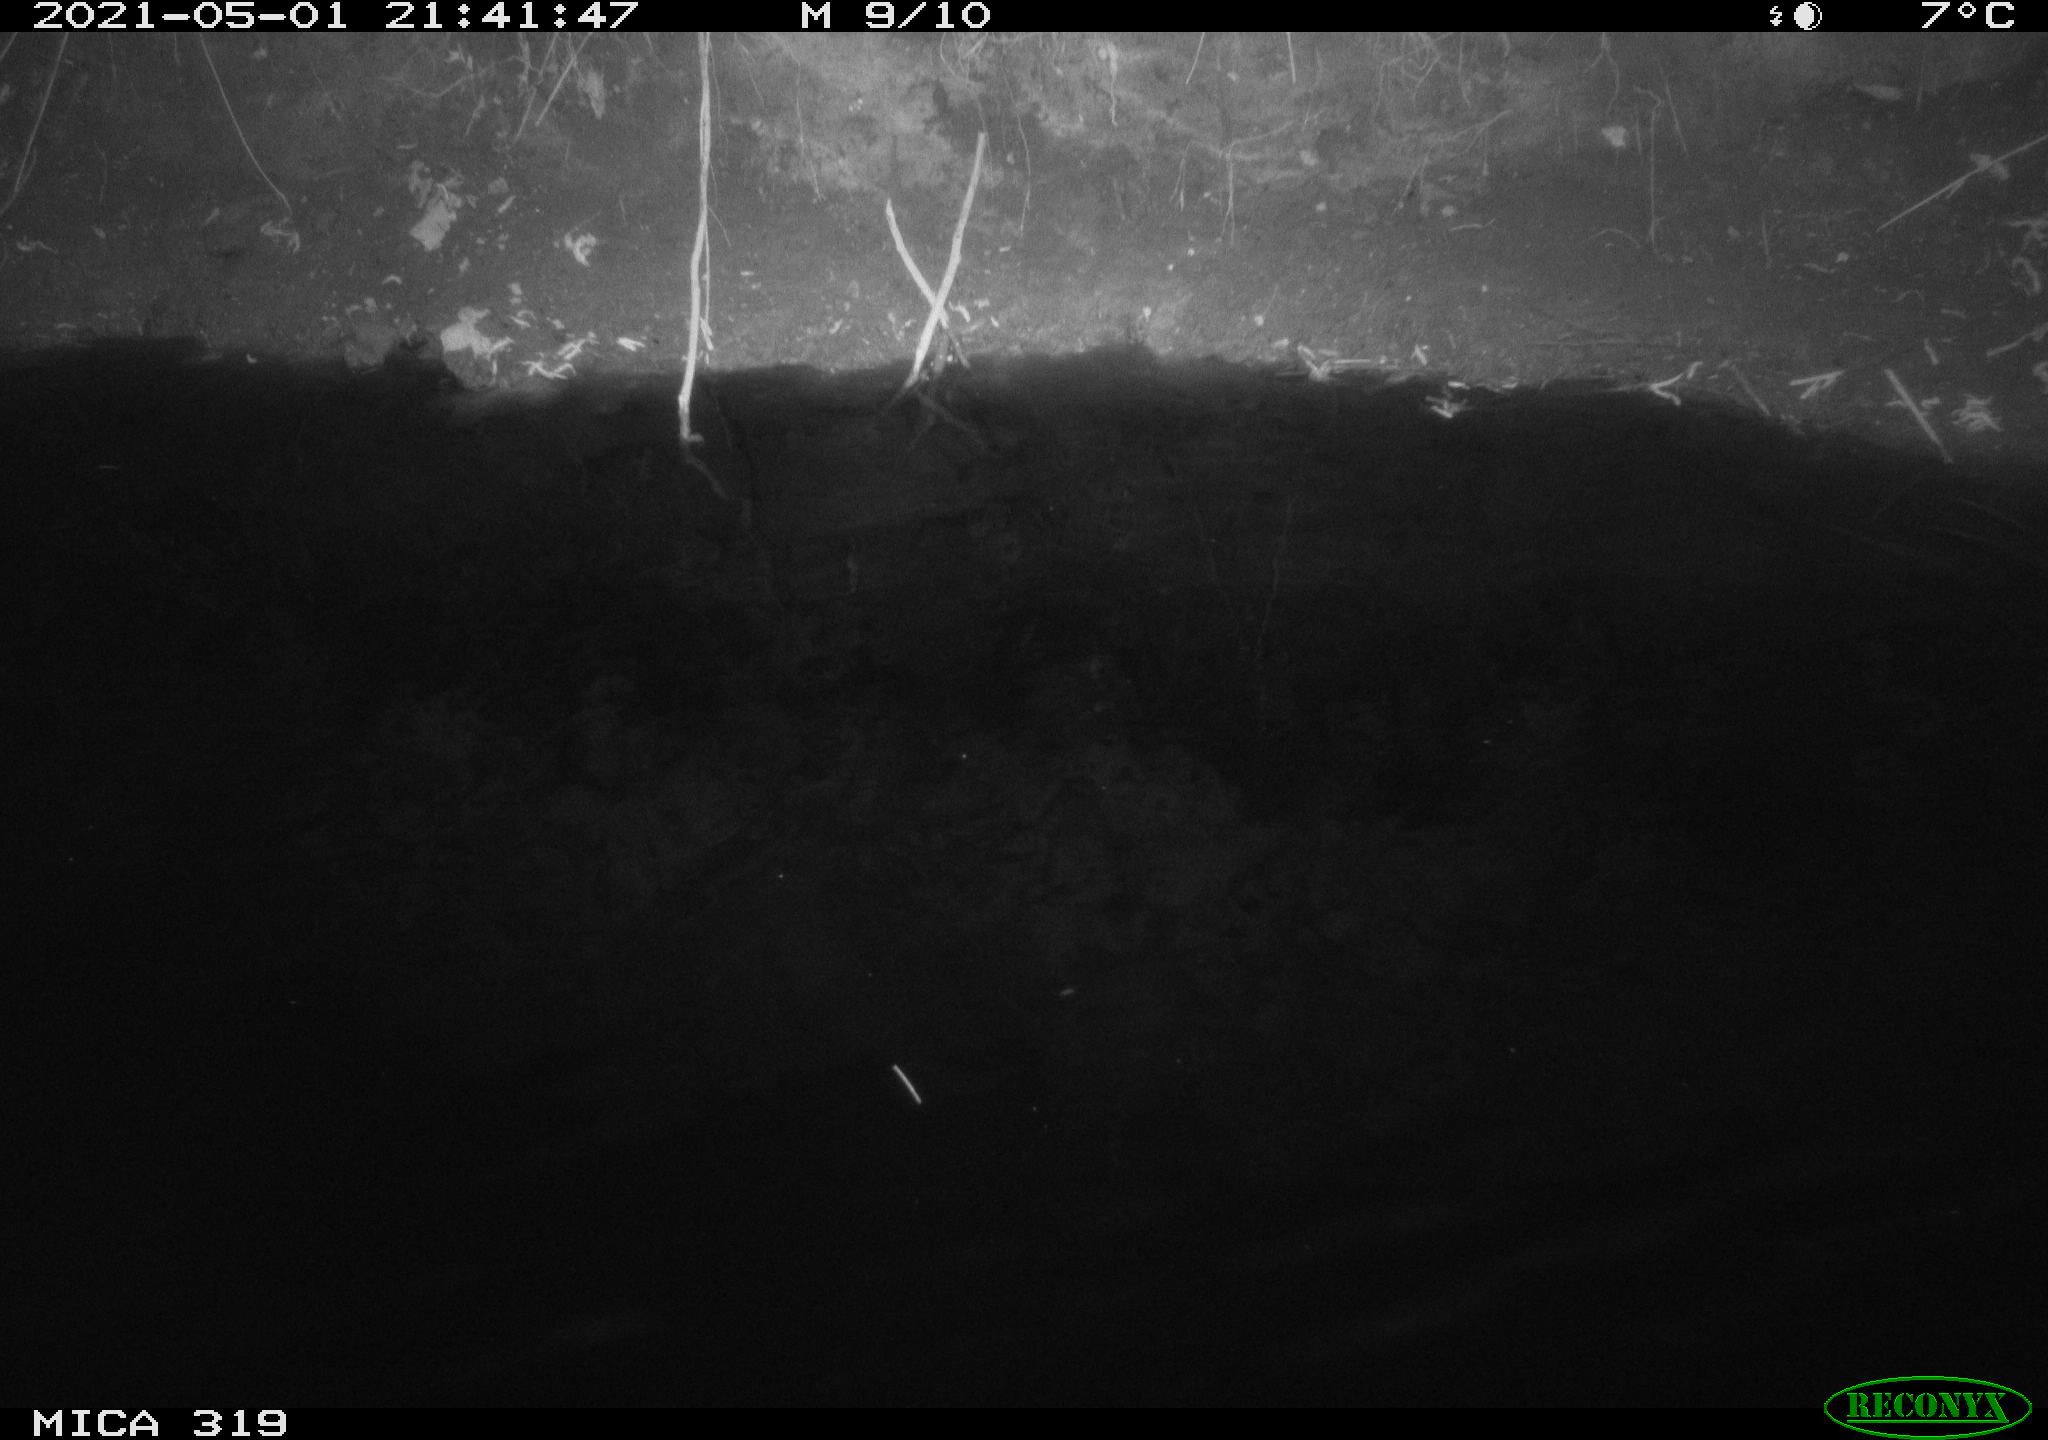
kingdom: Animalia
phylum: Chordata
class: Aves
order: Anseriformes
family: Anatidae
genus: Anas
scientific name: Anas platyrhynchos
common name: Mallard
